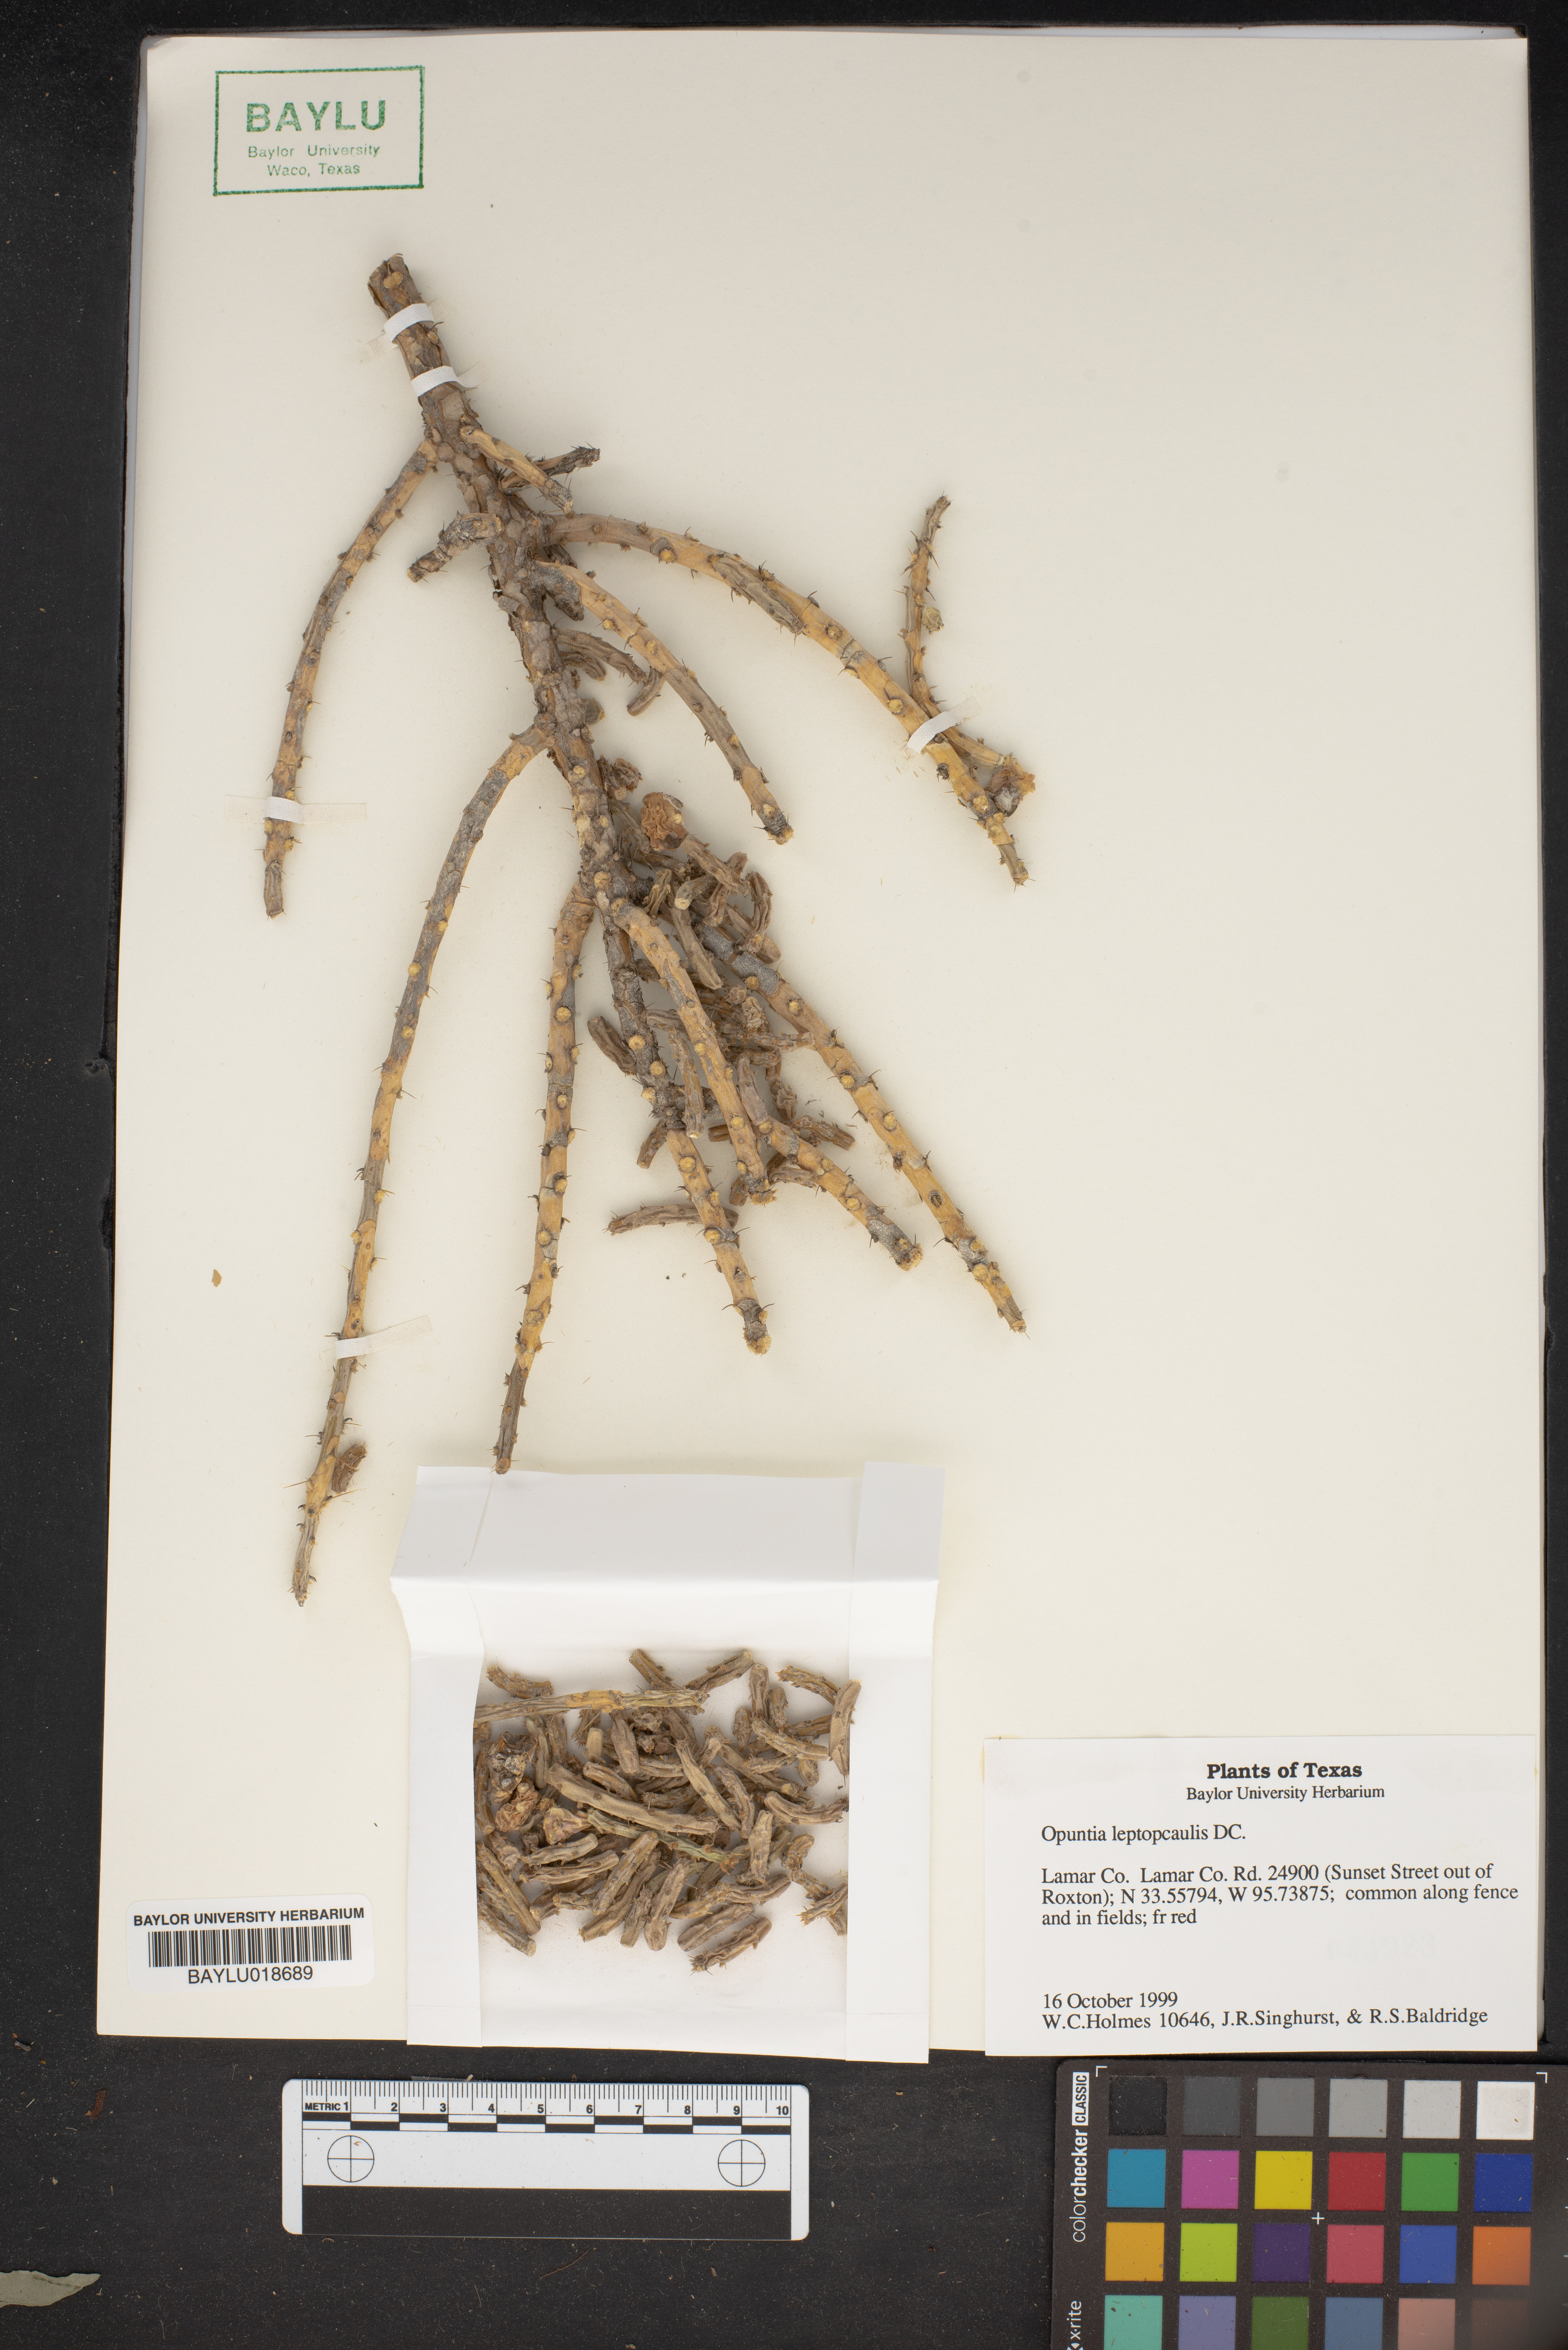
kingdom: Plantae
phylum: Tracheophyta
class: Magnoliopsida
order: Caryophyllales
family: Cactaceae
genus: Cylindropuntia
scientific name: Cylindropuntia leptocaulis
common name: Christmas cactus
